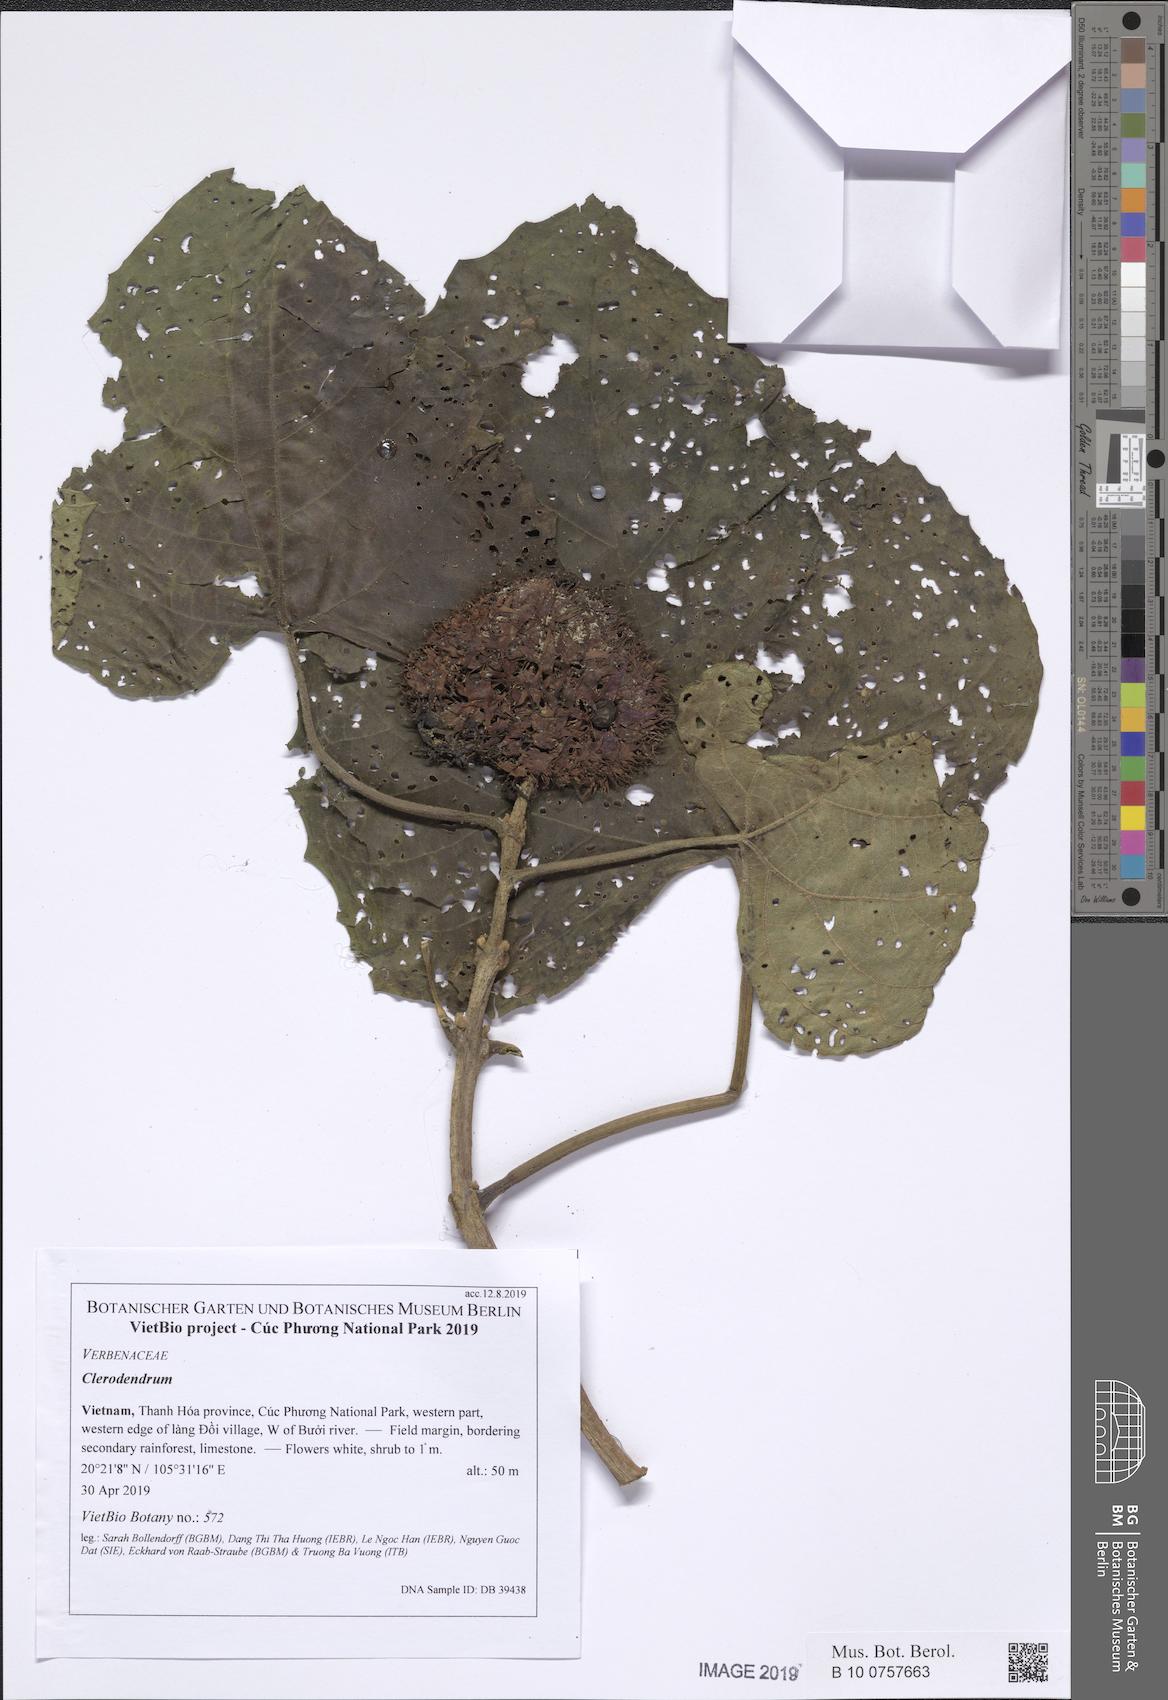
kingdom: Plantae
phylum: Tracheophyta
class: Magnoliopsida
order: Lamiales
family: Lamiaceae
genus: Clerodendrum
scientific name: Clerodendrum chinense
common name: Stickbush
